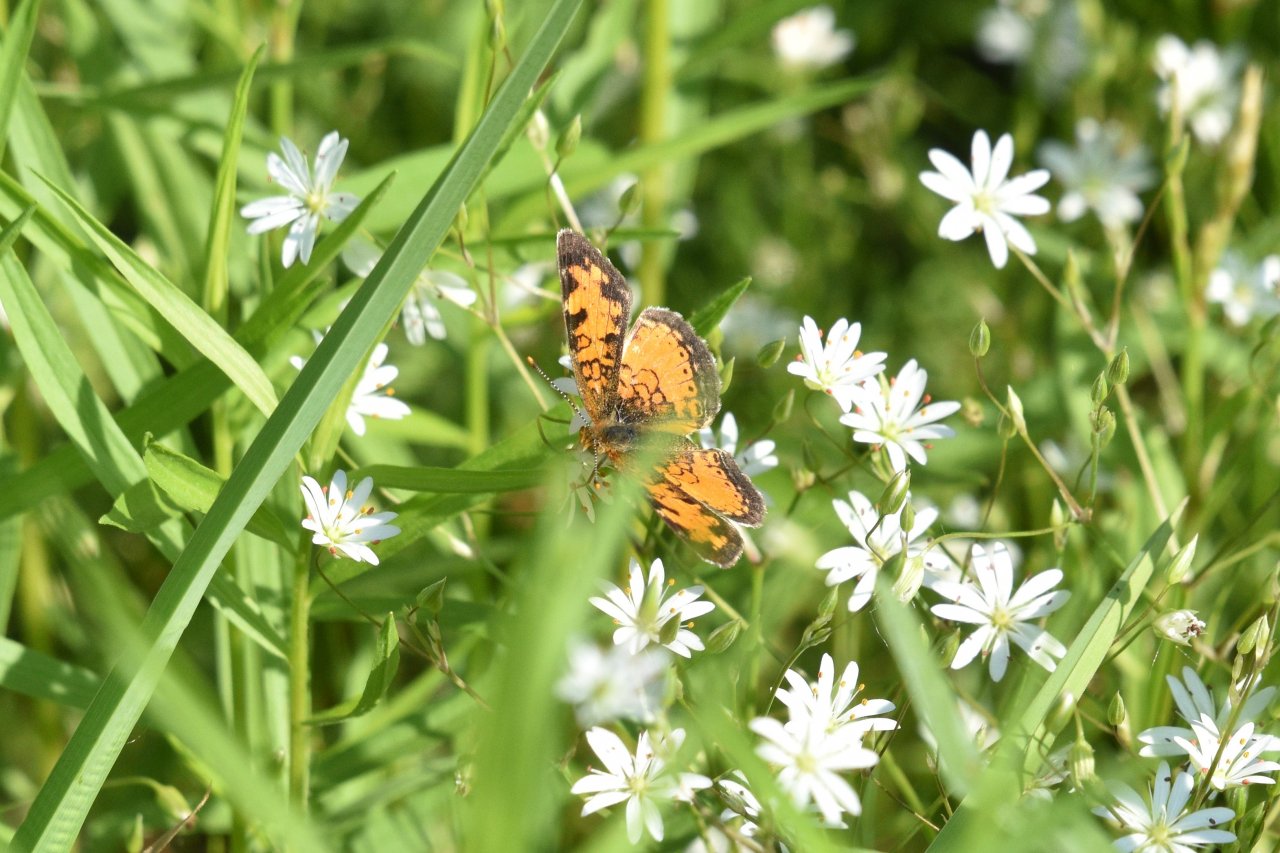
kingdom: Animalia
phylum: Arthropoda
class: Insecta
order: Lepidoptera
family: Nymphalidae
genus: Phyciodes
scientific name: Phyciodes tharos
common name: Northern Crescent
